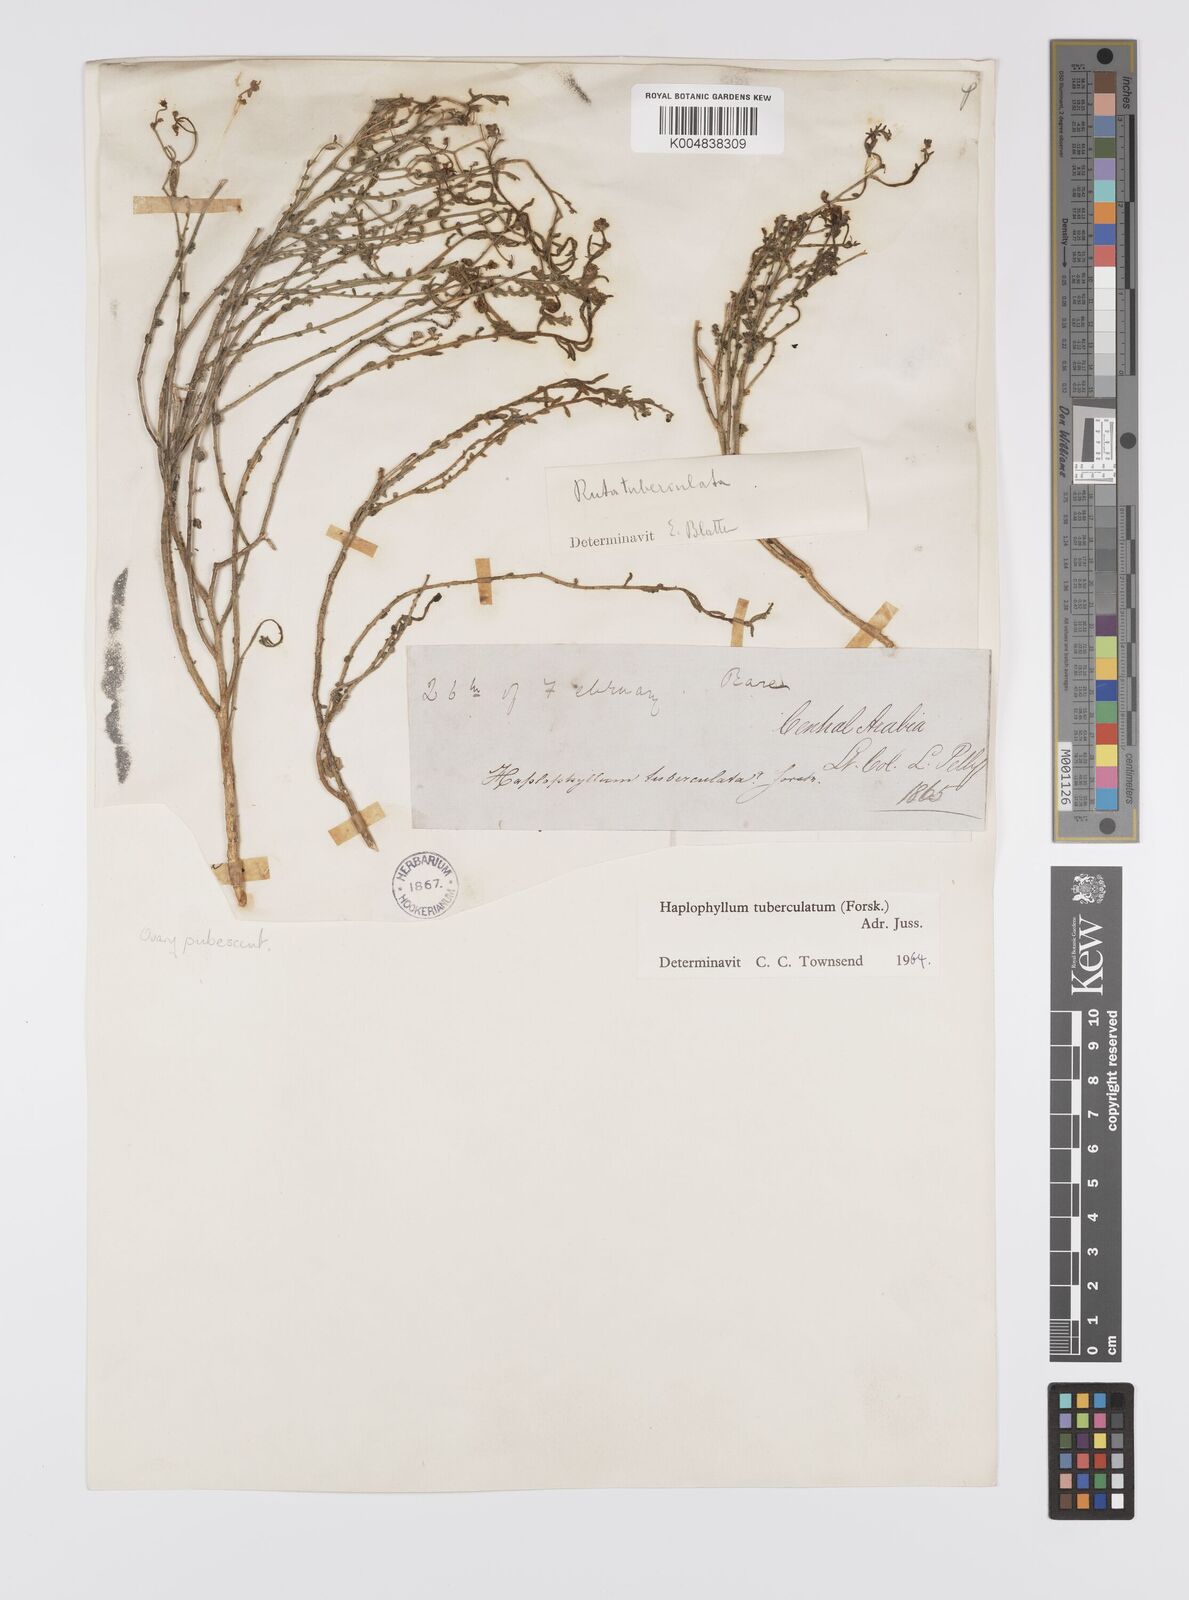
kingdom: Plantae
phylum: Tracheophyta
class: Magnoliopsida
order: Sapindales
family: Rutaceae
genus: Haplophyllum
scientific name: Haplophyllum tuberculatum
